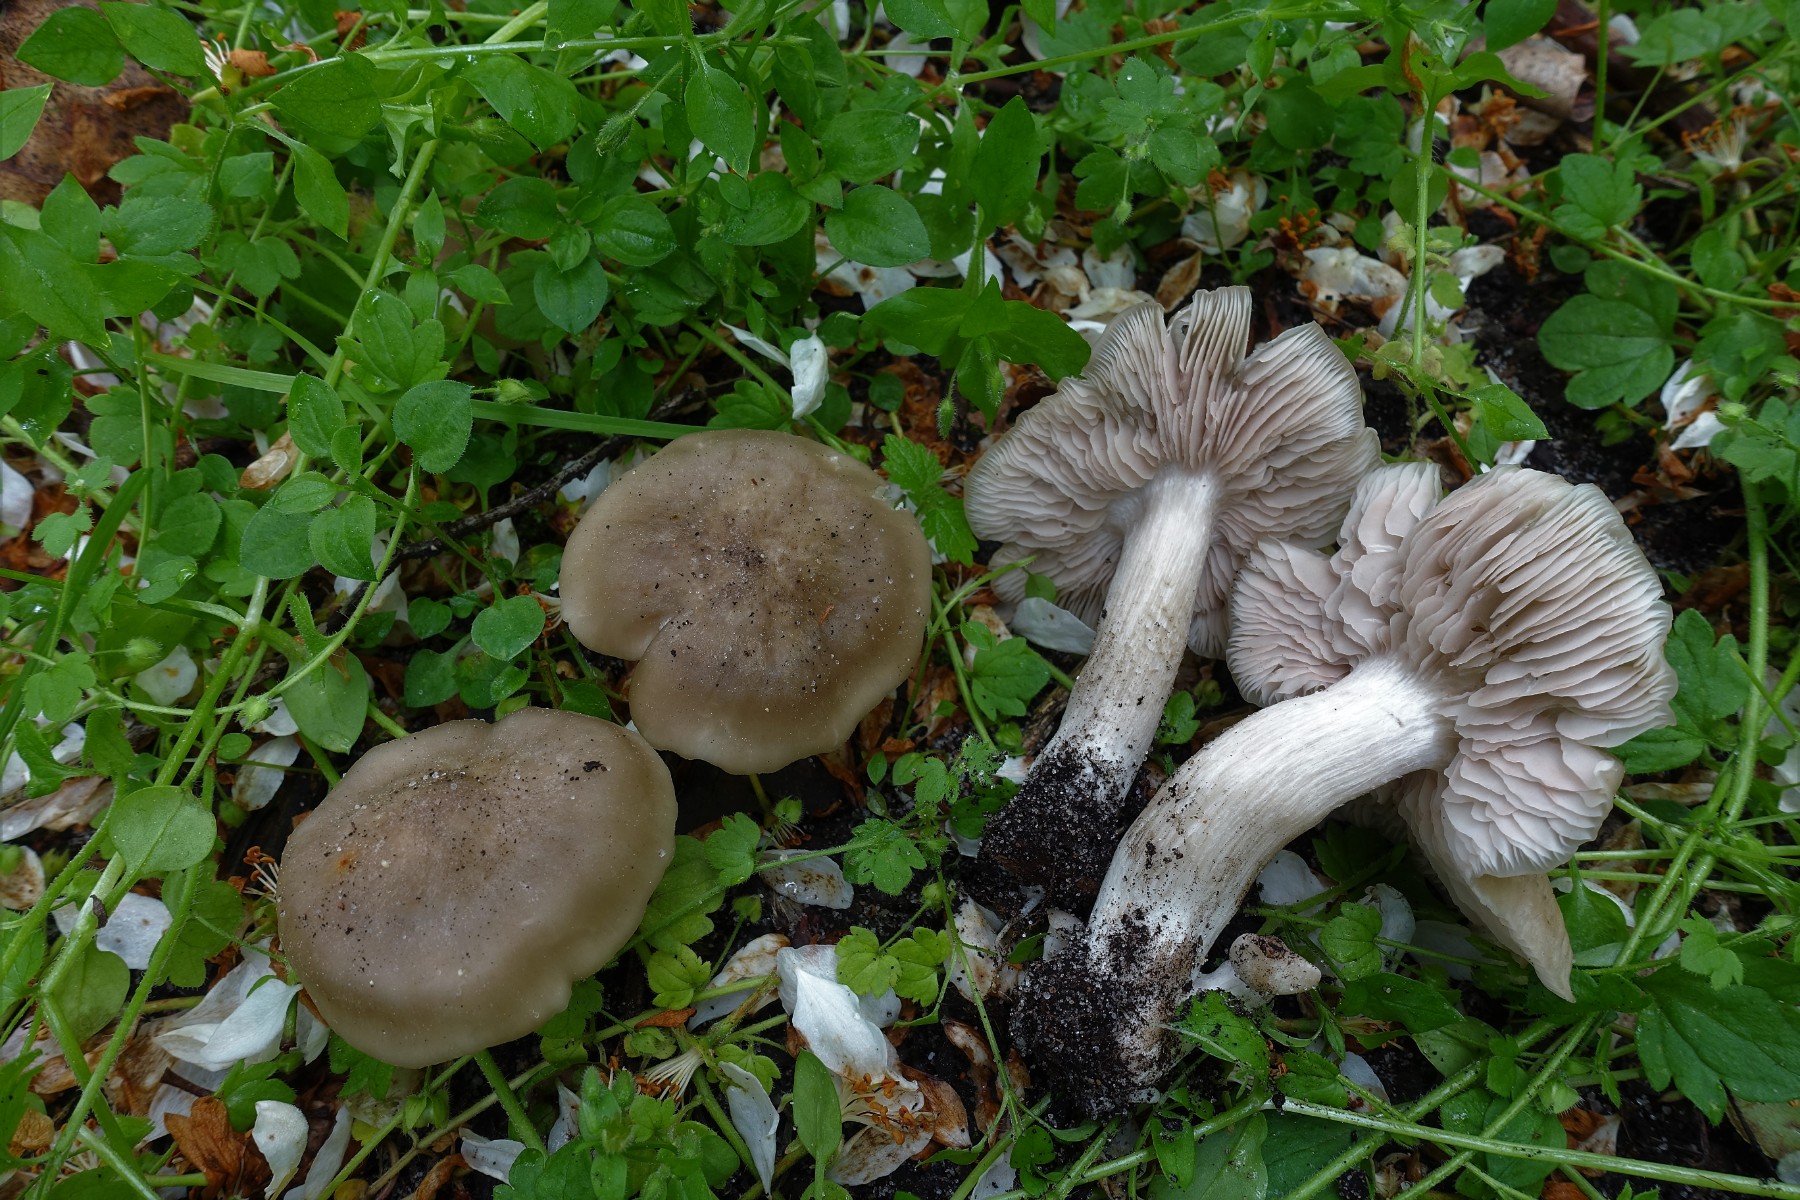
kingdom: Fungi
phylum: Basidiomycota
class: Agaricomycetes
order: Agaricales
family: Entolomataceae
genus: Entoloma
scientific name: Entoloma clypeatum
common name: flammet rødblad
